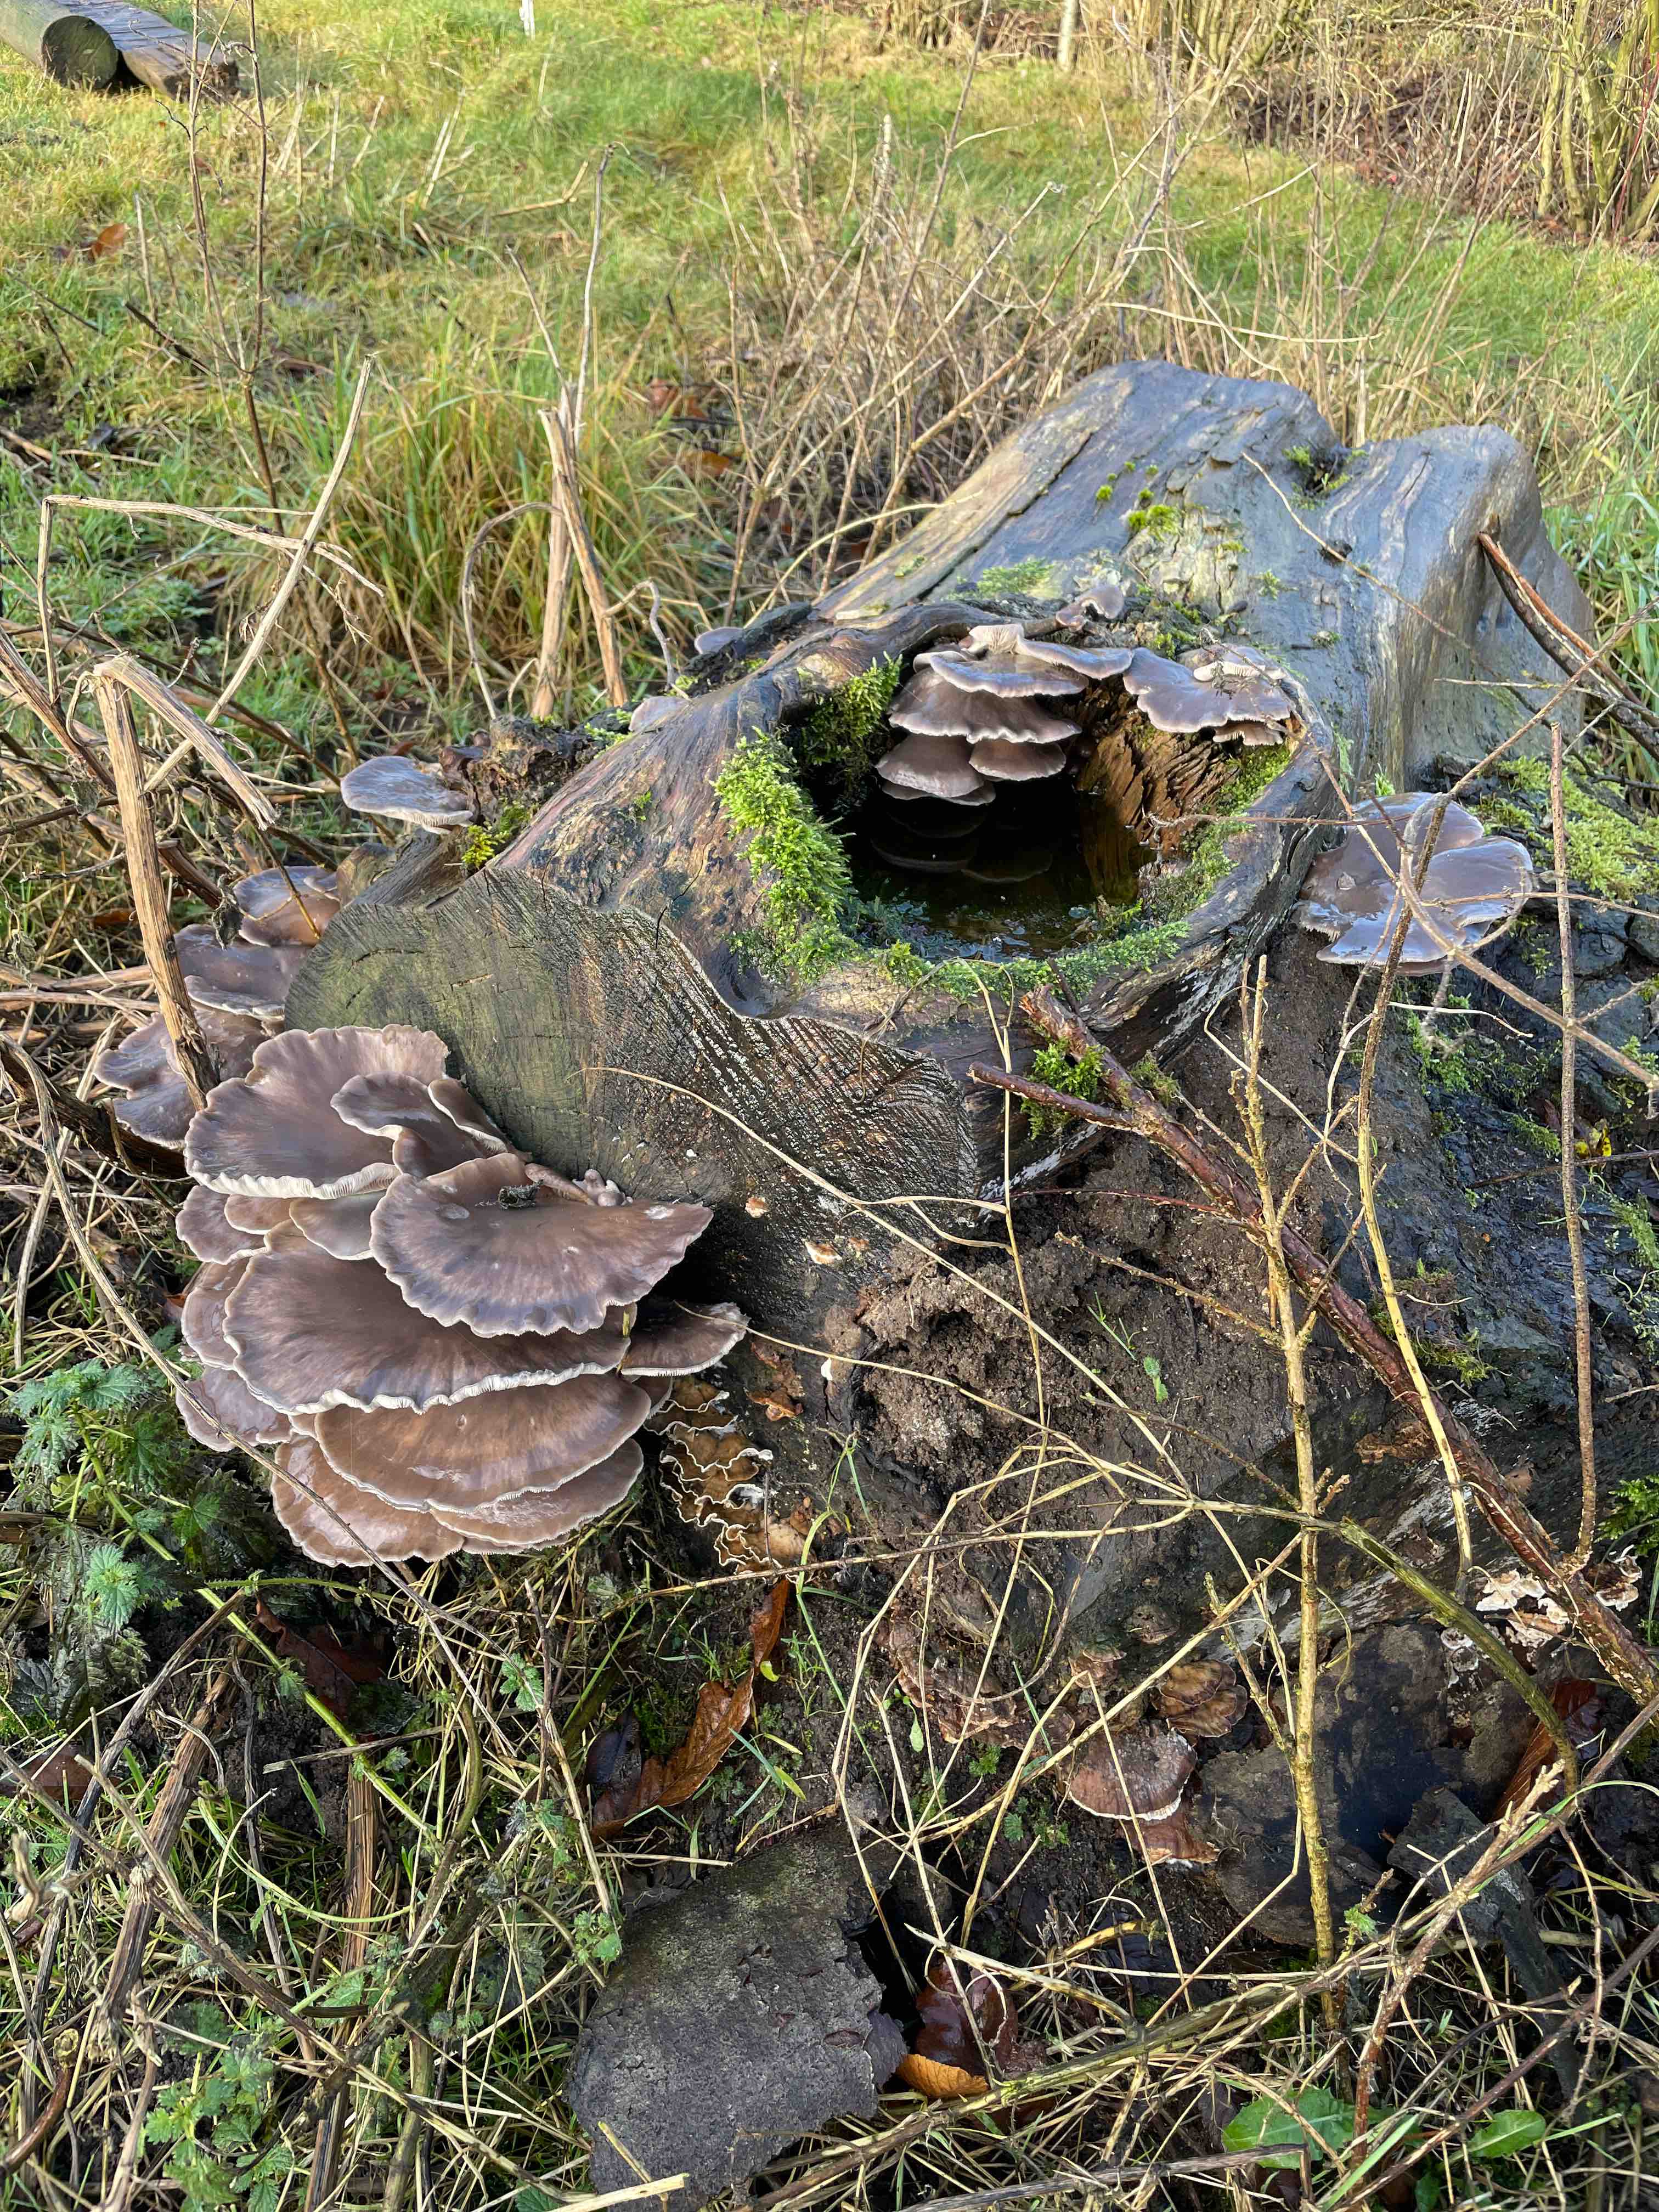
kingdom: Fungi
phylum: Basidiomycota
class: Agaricomycetes
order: Agaricales
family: Pleurotaceae
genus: Pleurotus
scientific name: Pleurotus ostreatus
